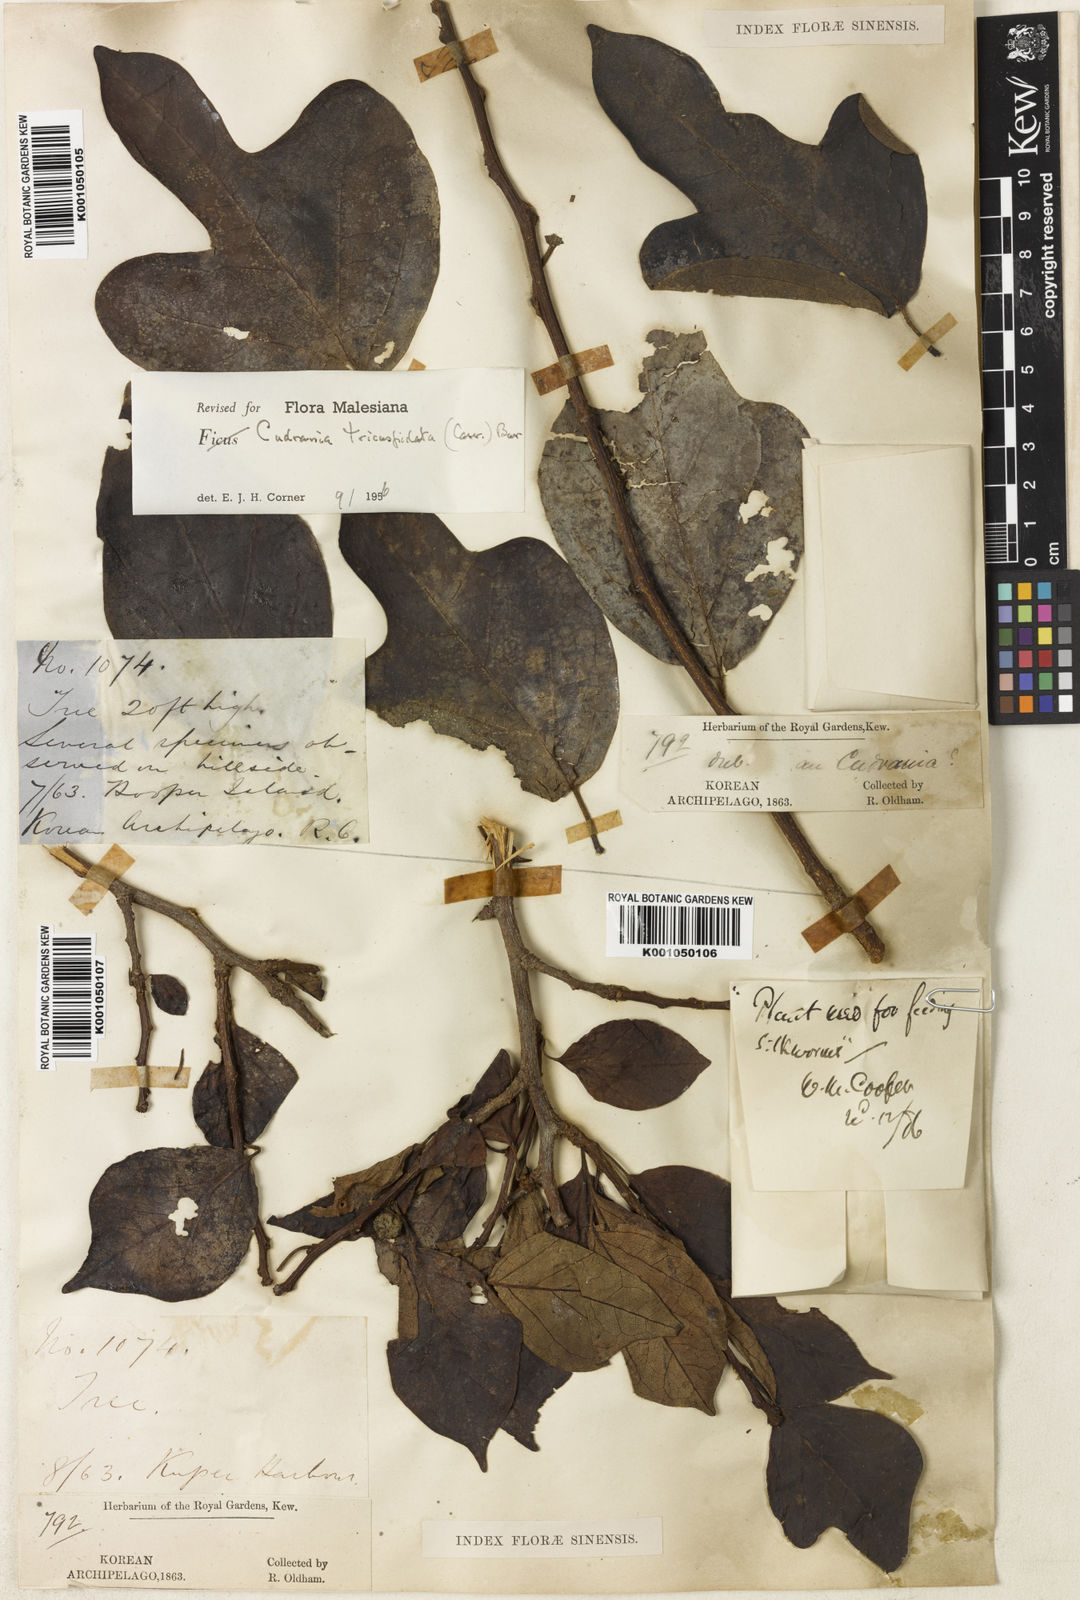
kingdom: Plantae
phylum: Tracheophyta
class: Magnoliopsida
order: Rosales
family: Moraceae
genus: Maclura
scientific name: Maclura
